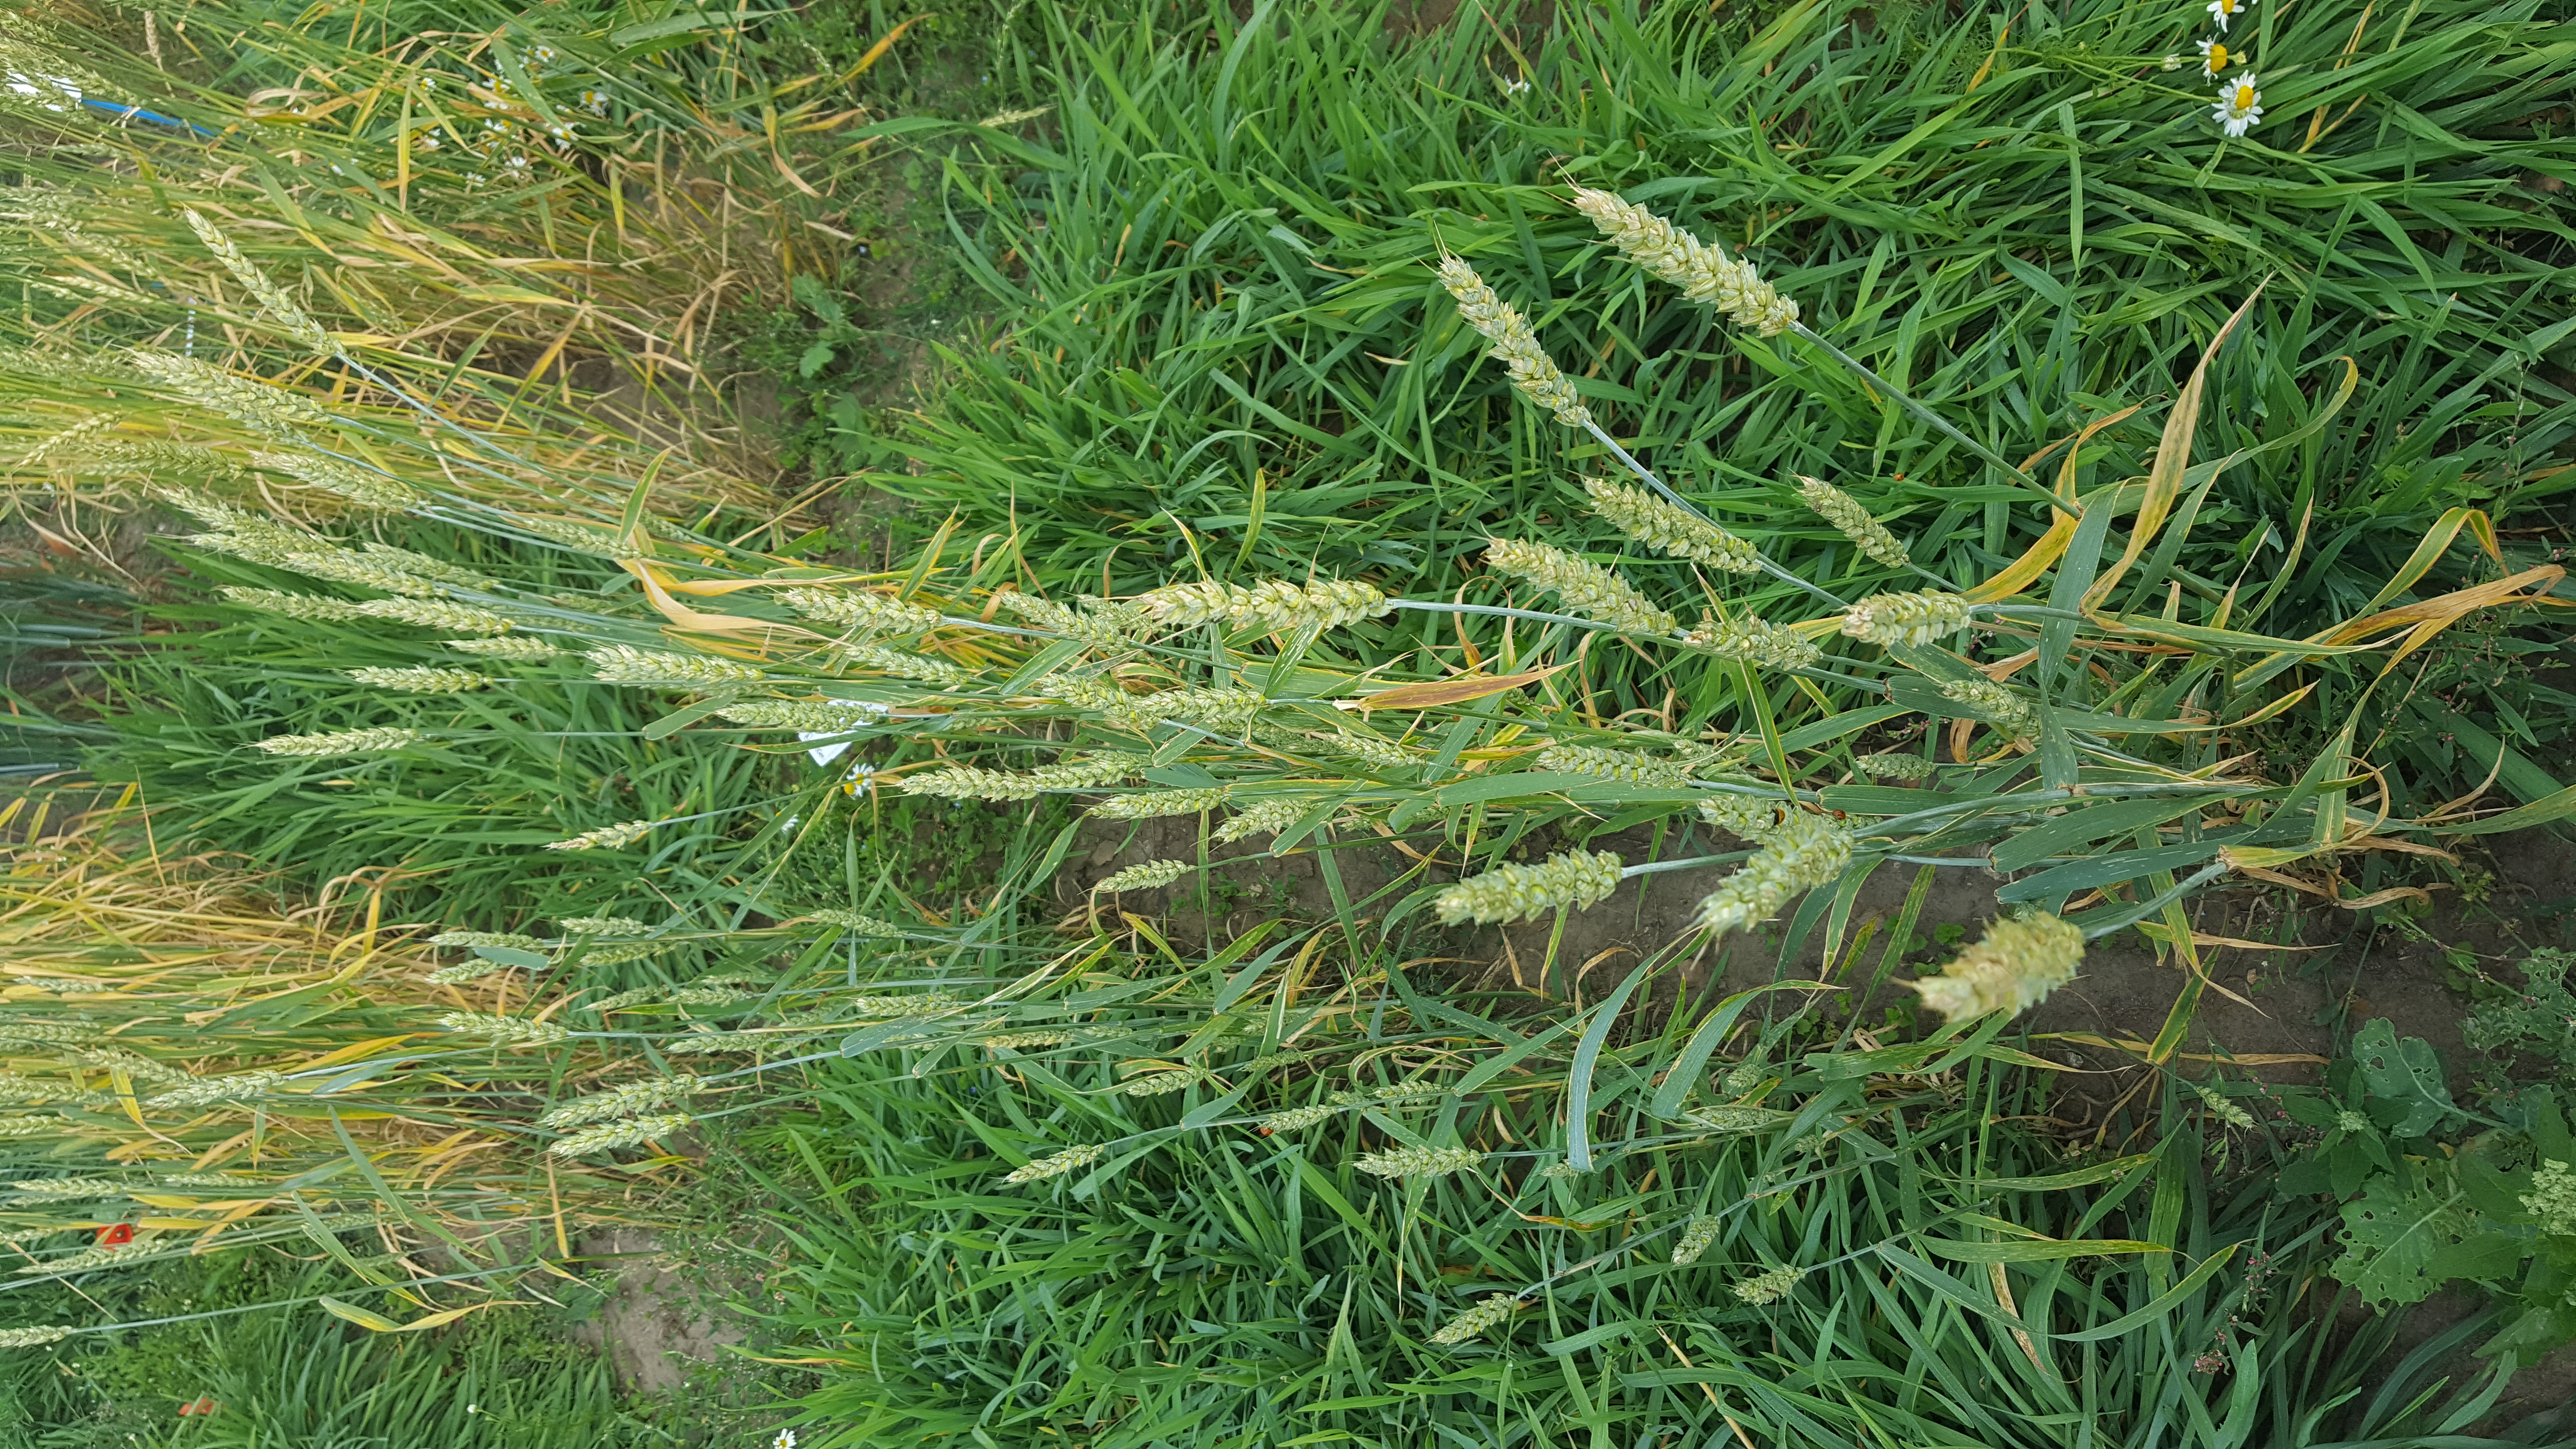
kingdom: Plantae
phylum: Tracheophyta
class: Liliopsida
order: Poales
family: Poaceae
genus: Triticum
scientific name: Triticum aestivum
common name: Common wheat
